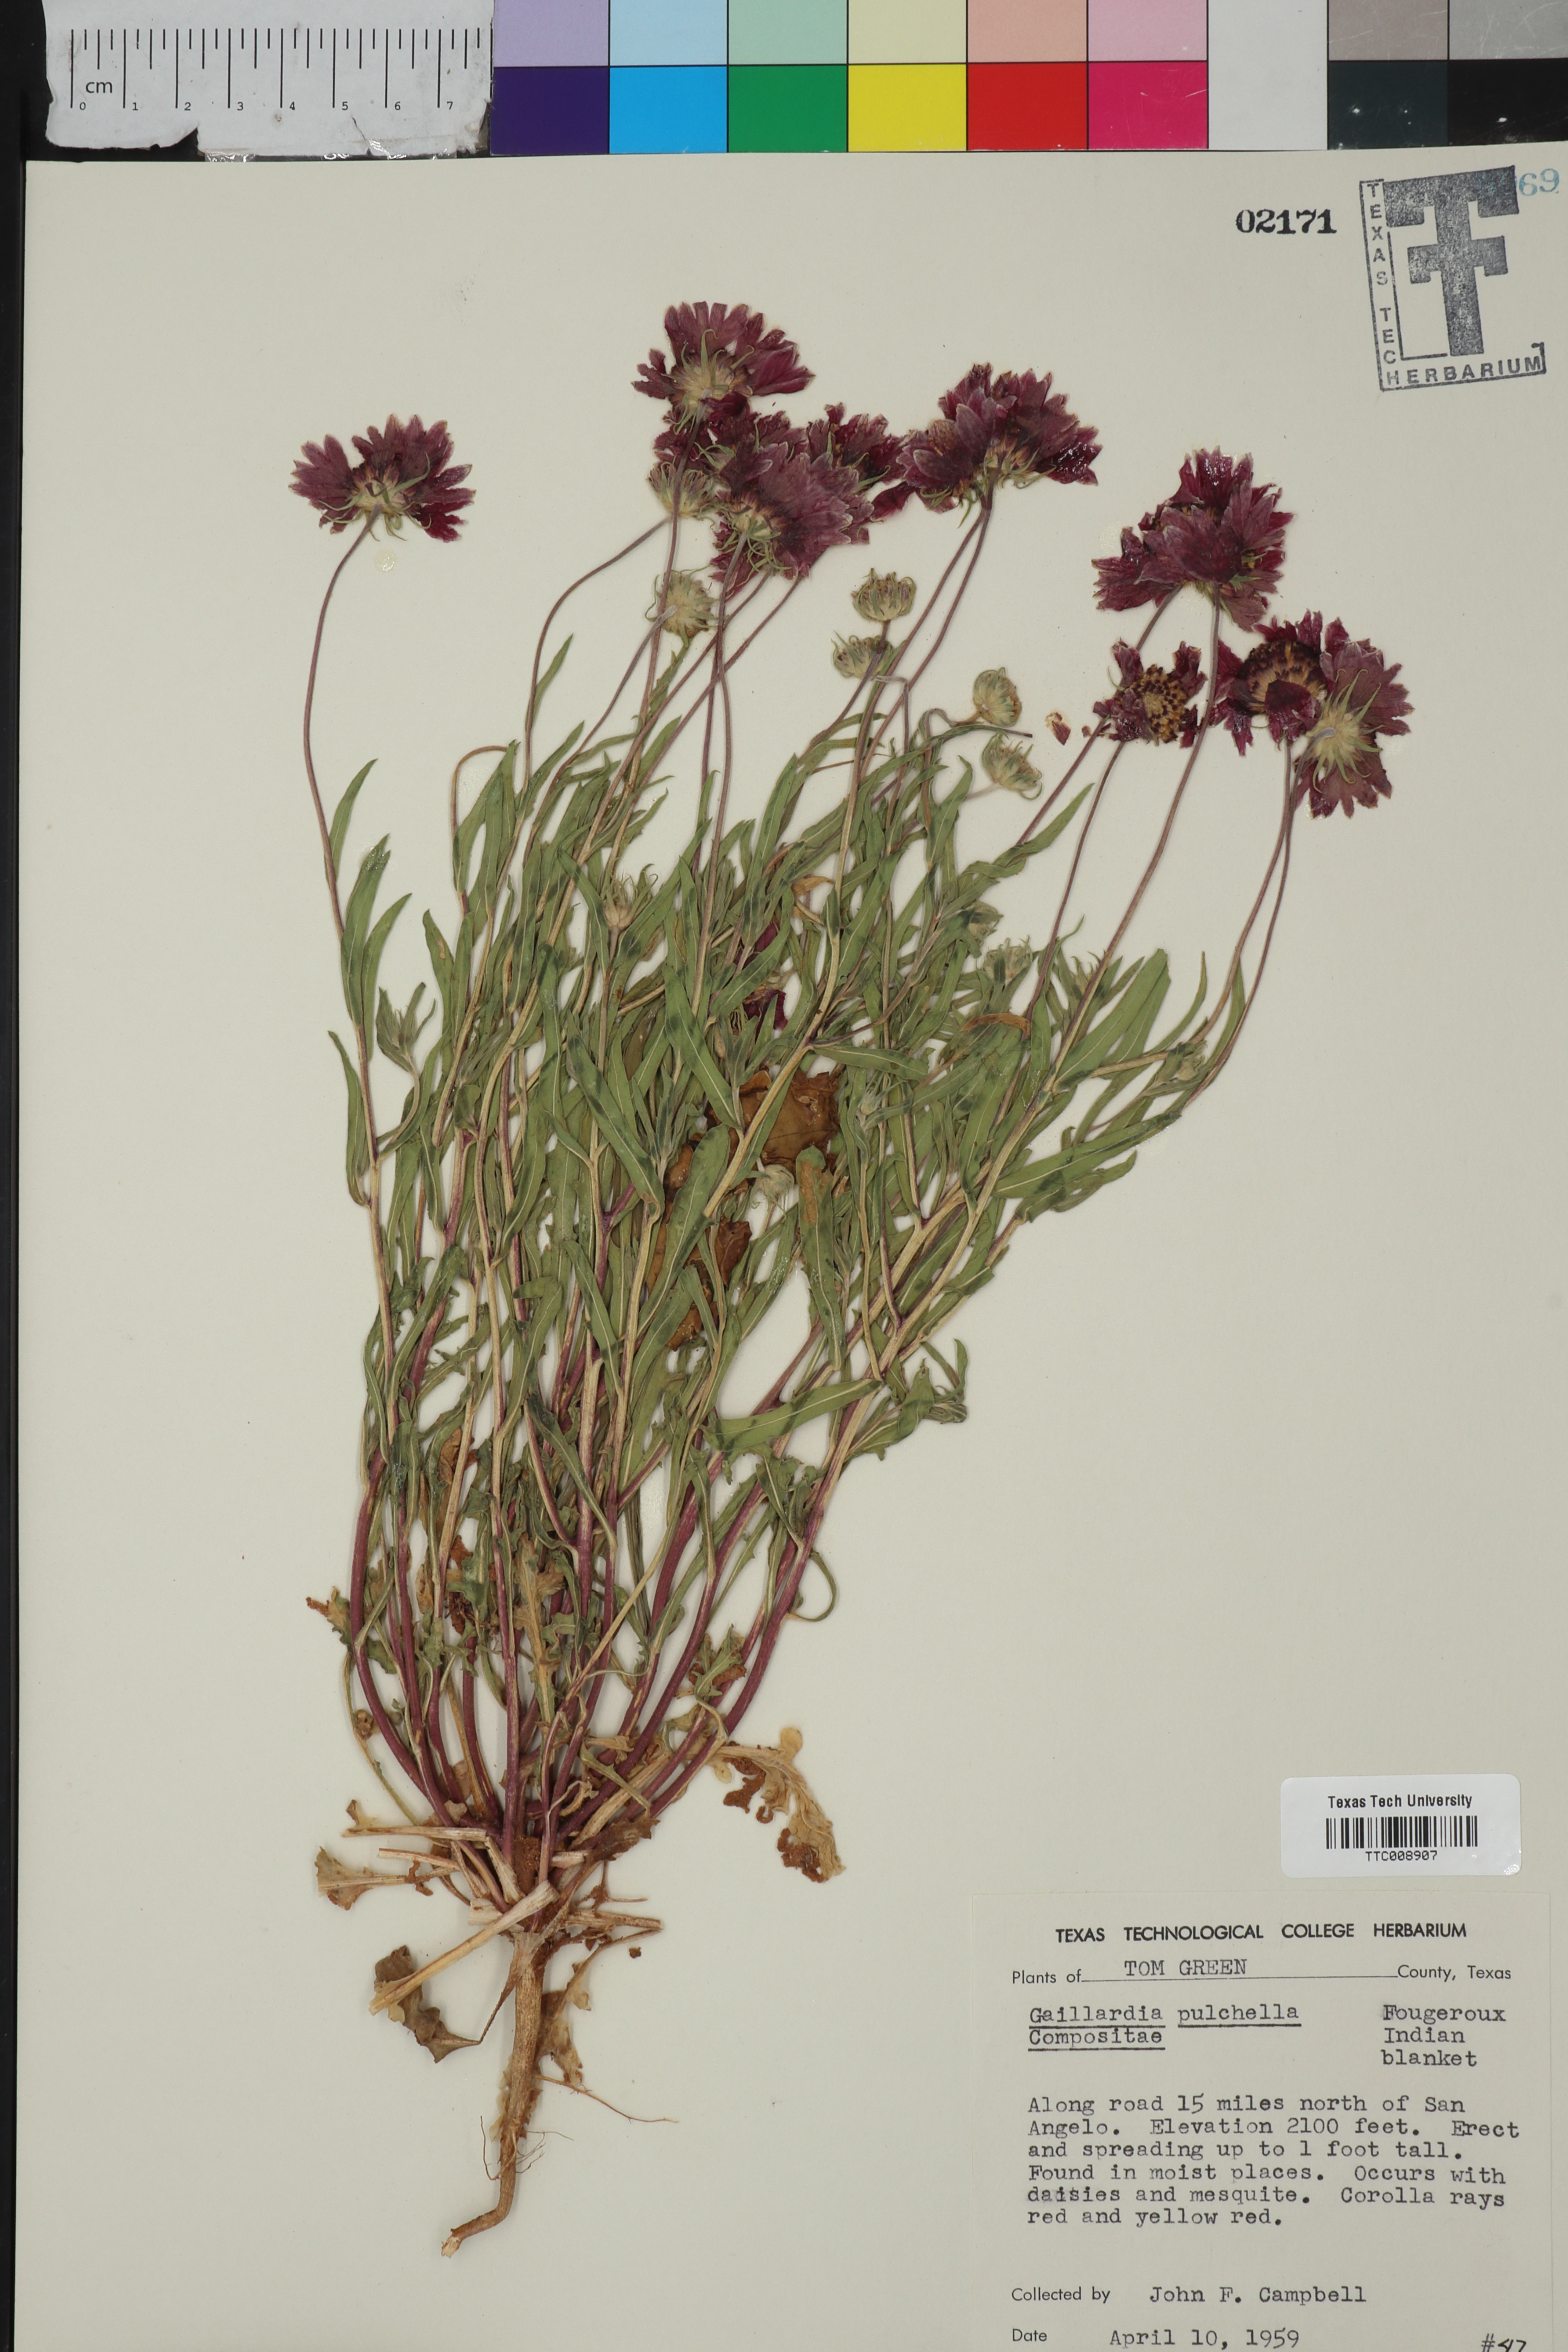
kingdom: Plantae
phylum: Tracheophyta
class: Magnoliopsida
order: Asterales
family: Asteraceae
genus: Gaillardia
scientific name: Gaillardia pulchella
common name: Firewheel
